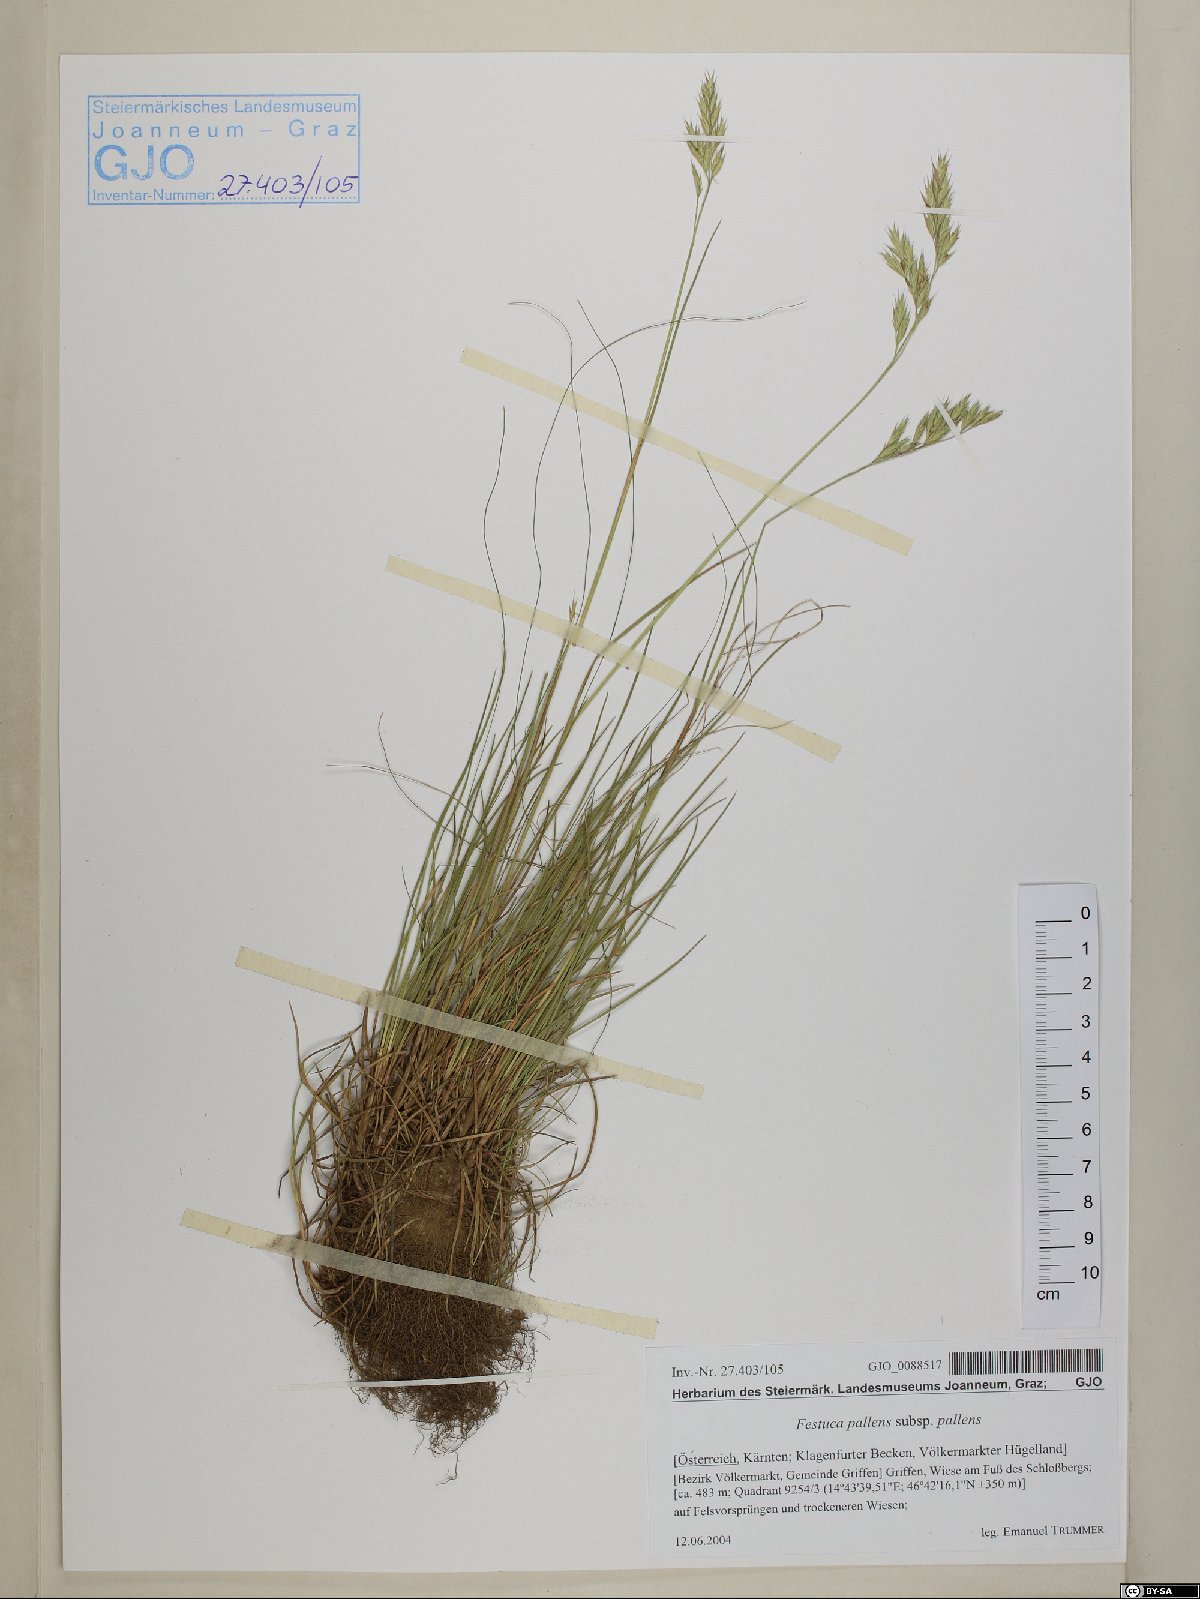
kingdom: Plantae
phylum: Tracheophyta
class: Liliopsida
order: Poales
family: Poaceae
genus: Festuca
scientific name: Festuca rupicola
